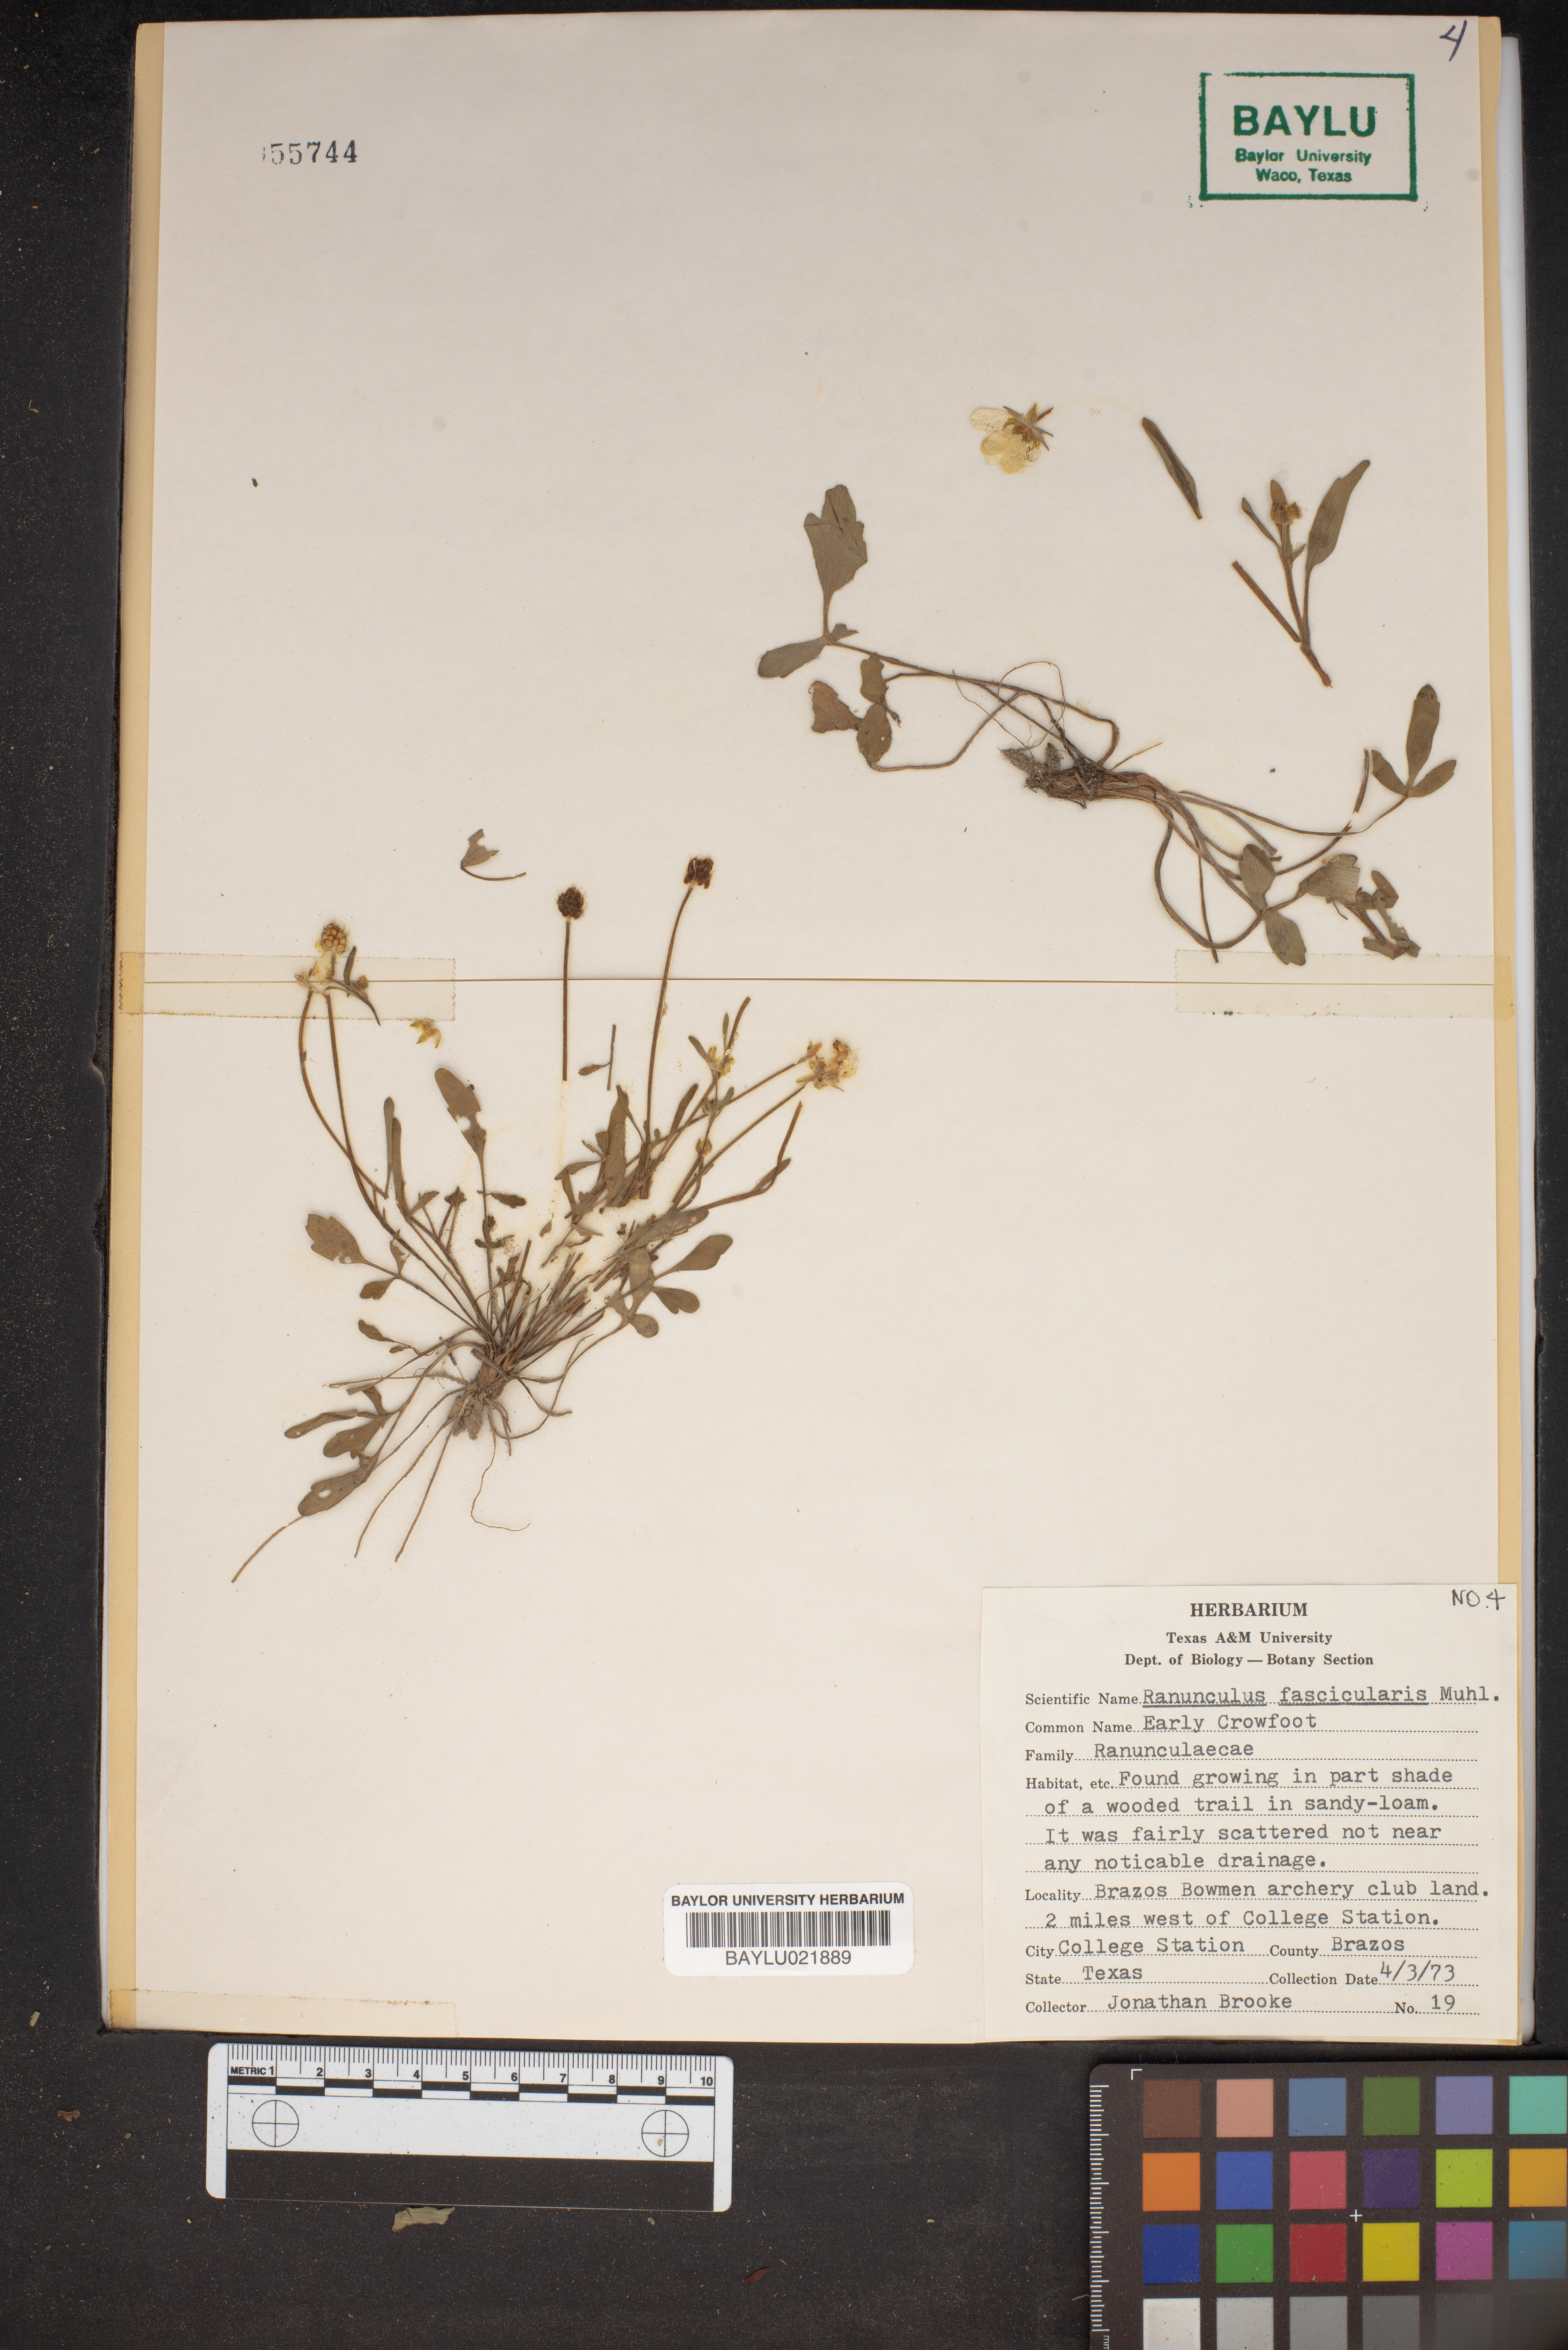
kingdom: Plantae
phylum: Tracheophyta
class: Magnoliopsida
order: Ranunculales
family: Ranunculaceae
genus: Ranunculus
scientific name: Ranunculus fascicularis
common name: Early buttercup
